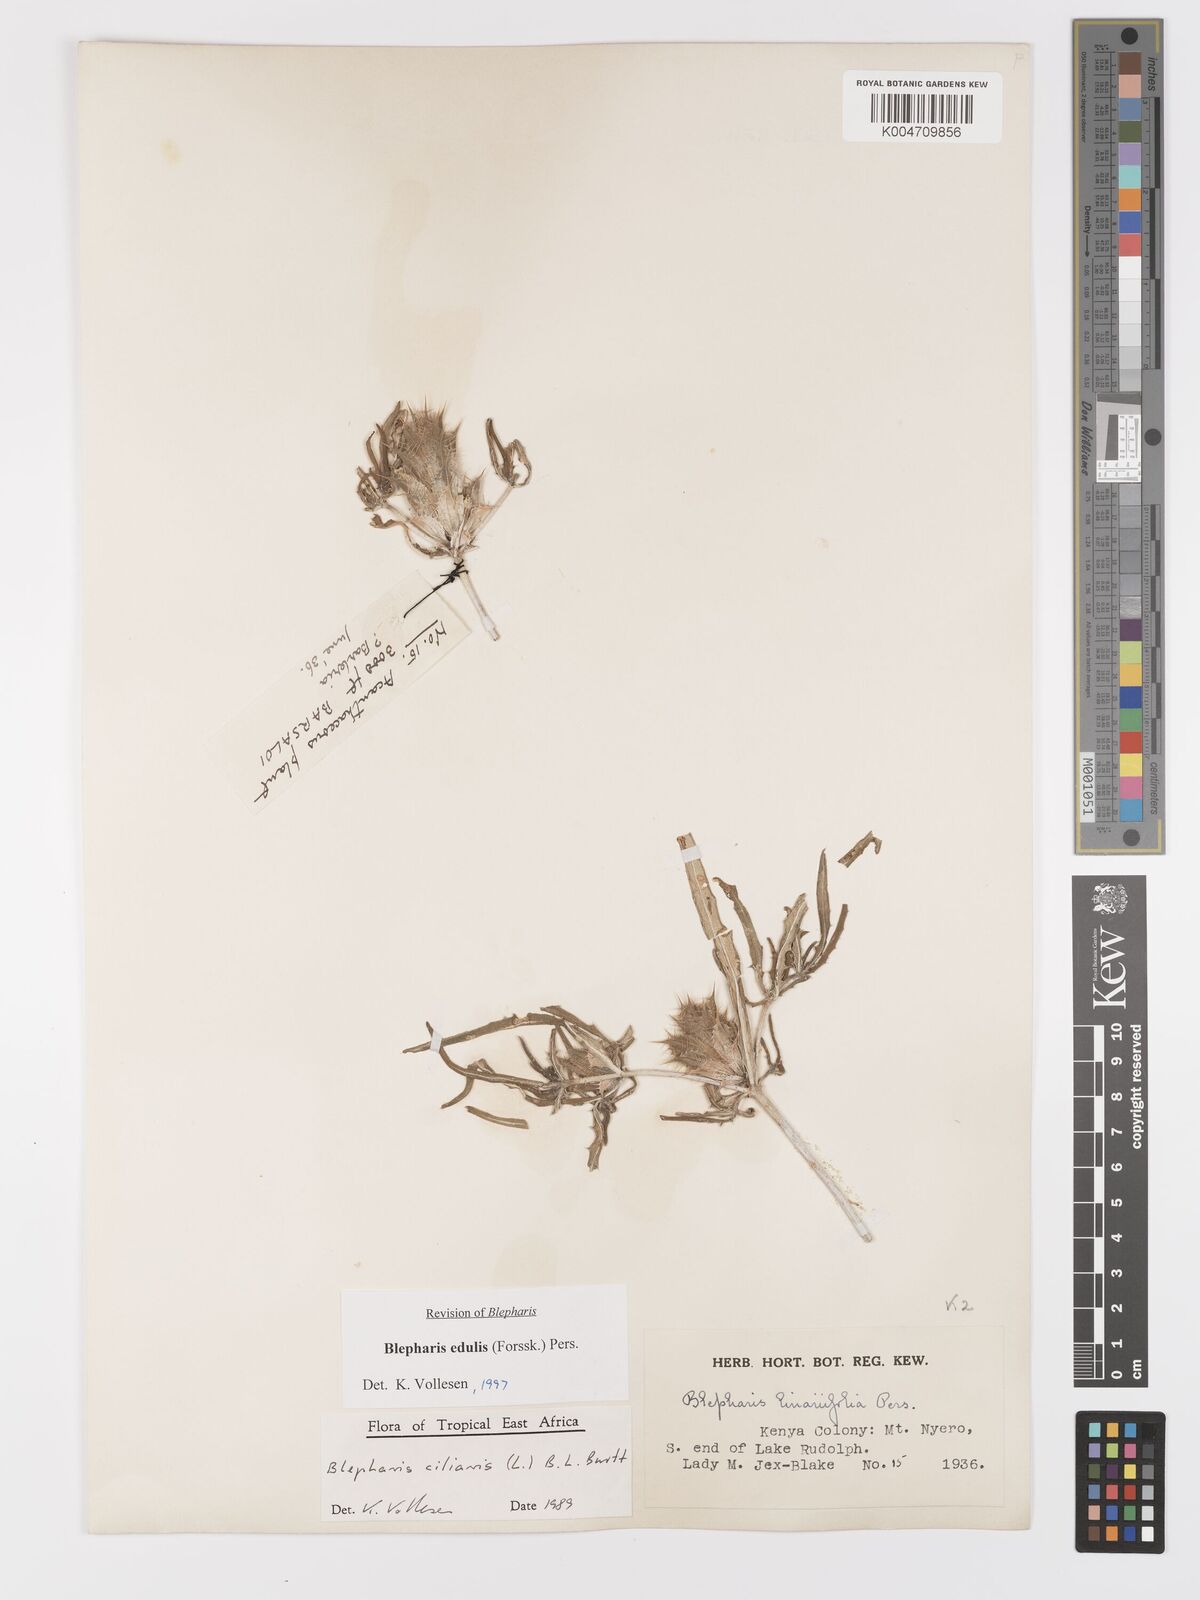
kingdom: Plantae
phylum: Tracheophyta
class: Magnoliopsida
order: Lamiales
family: Acanthaceae
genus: Blepharis
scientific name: Blepharis edulis
